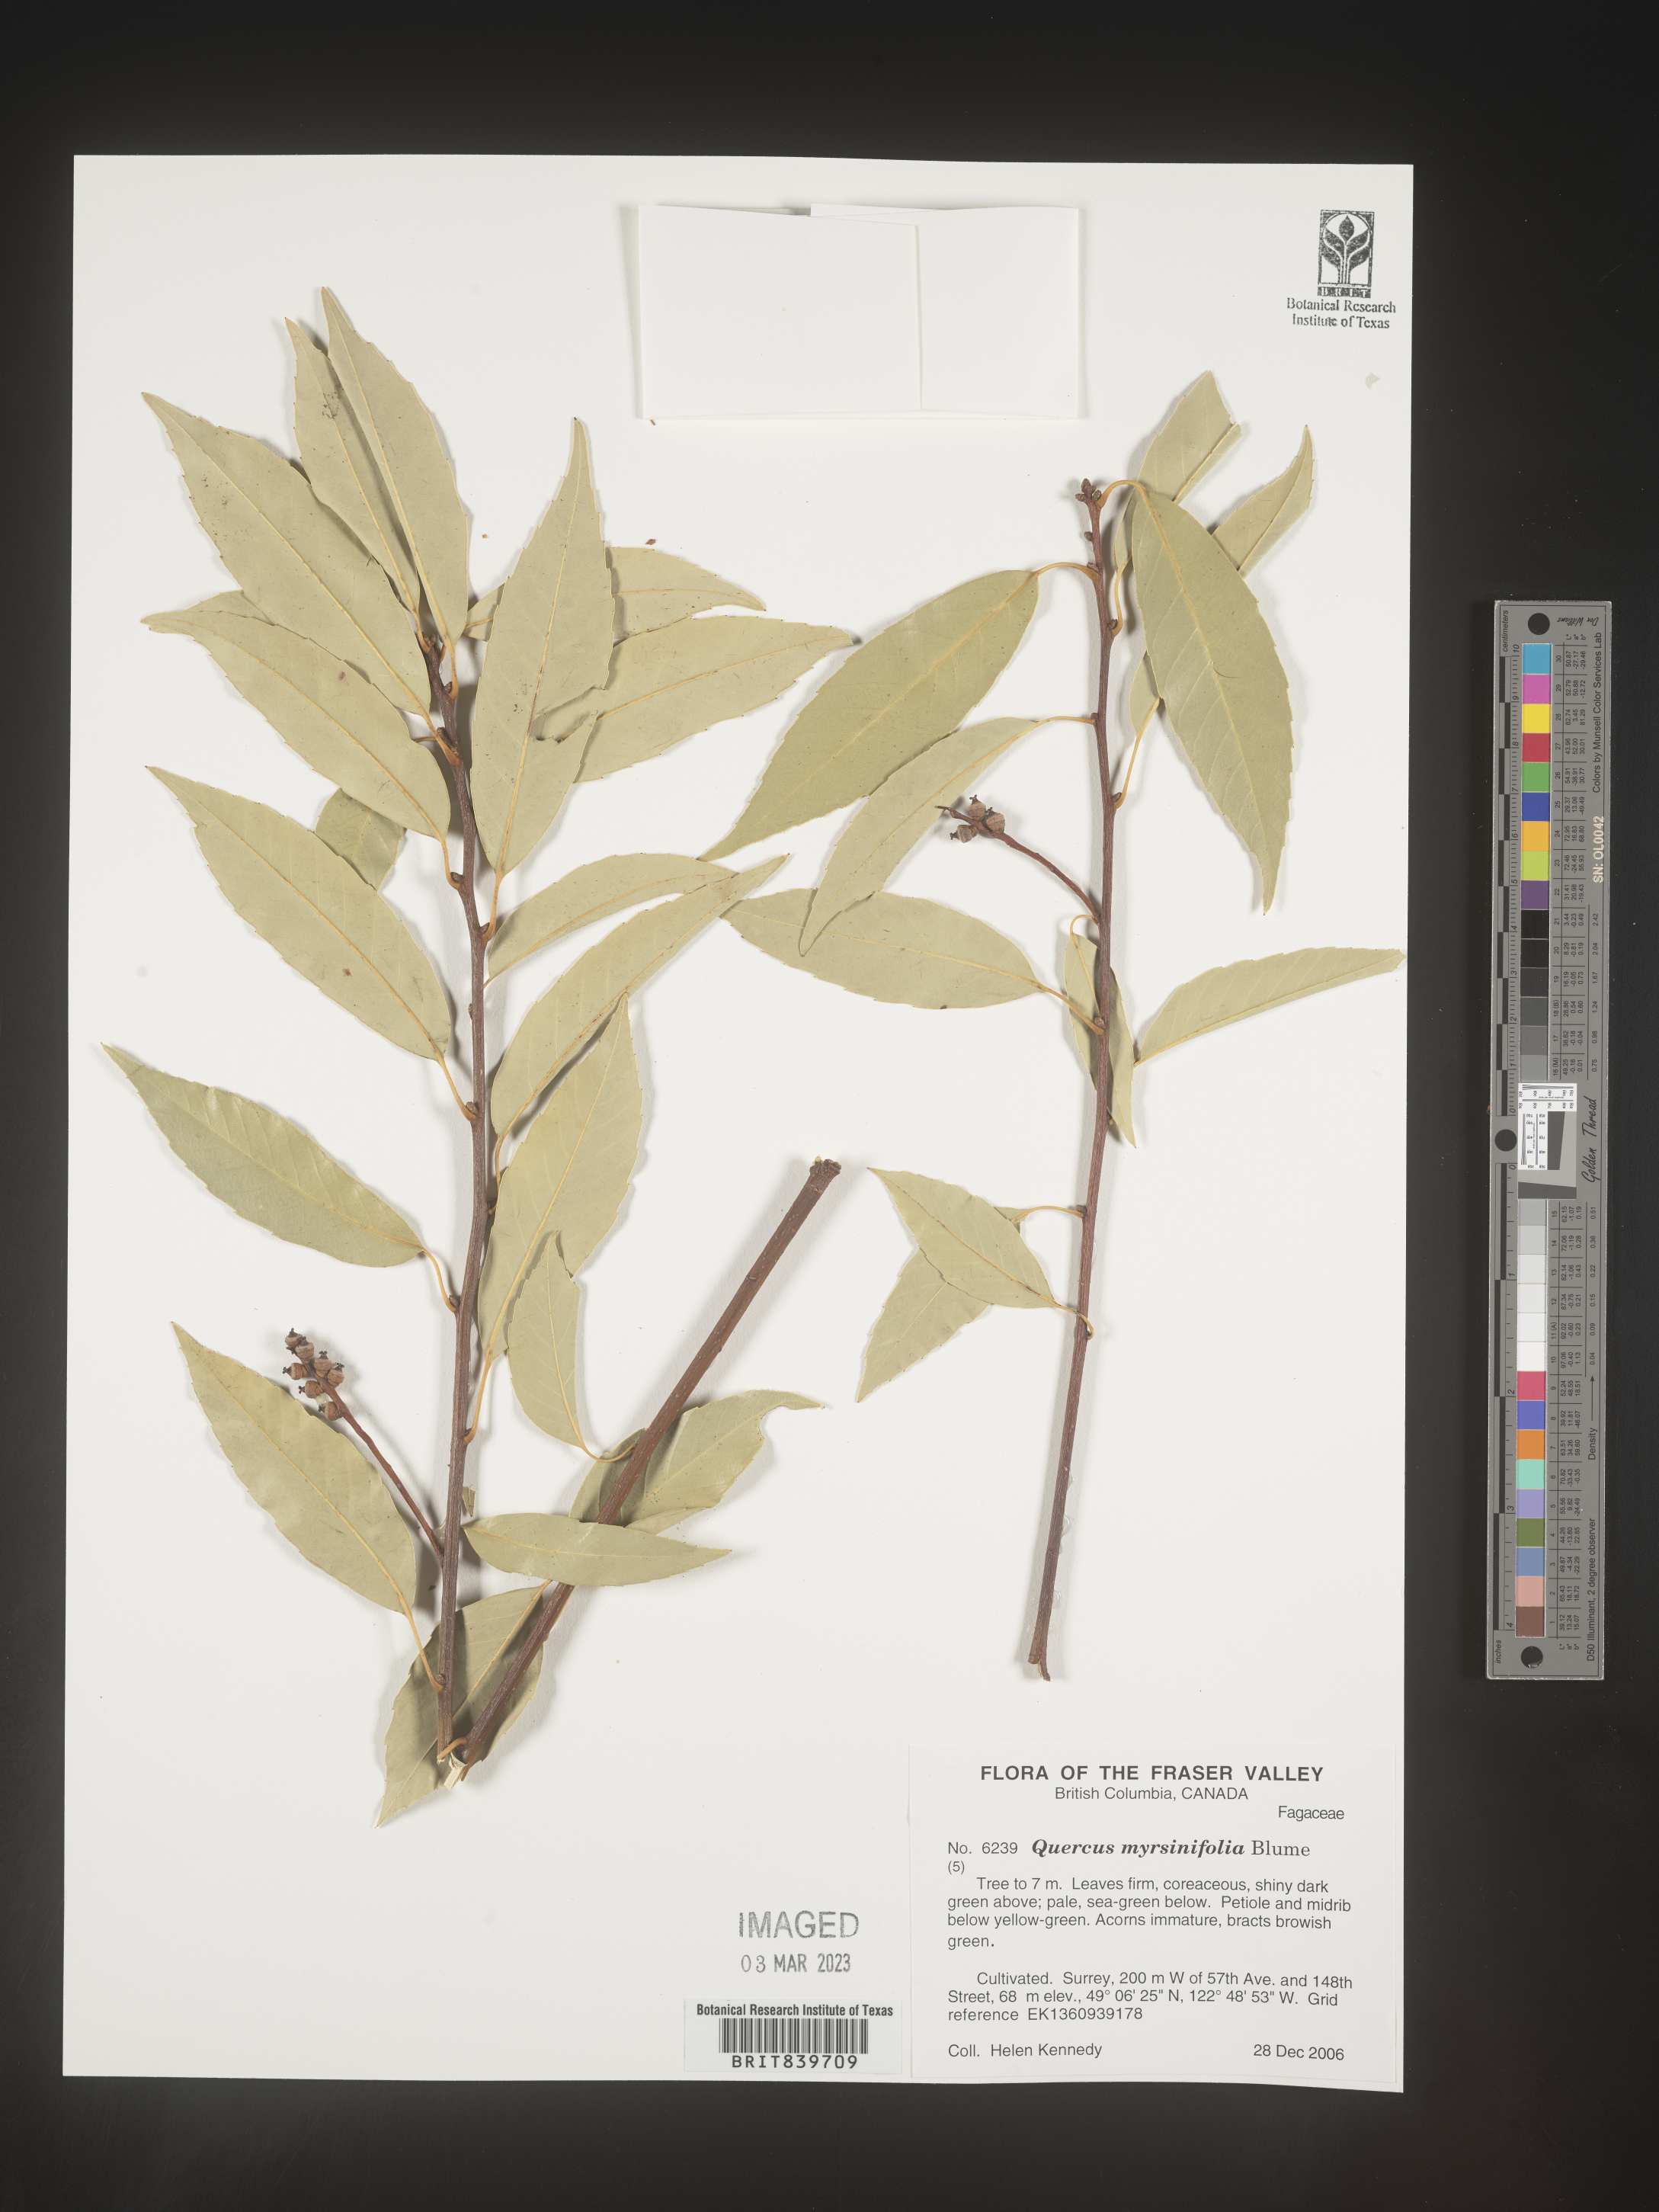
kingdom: Plantae
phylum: Tracheophyta
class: Magnoliopsida
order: Fagales
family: Fagaceae
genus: Quercus
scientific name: Quercus
